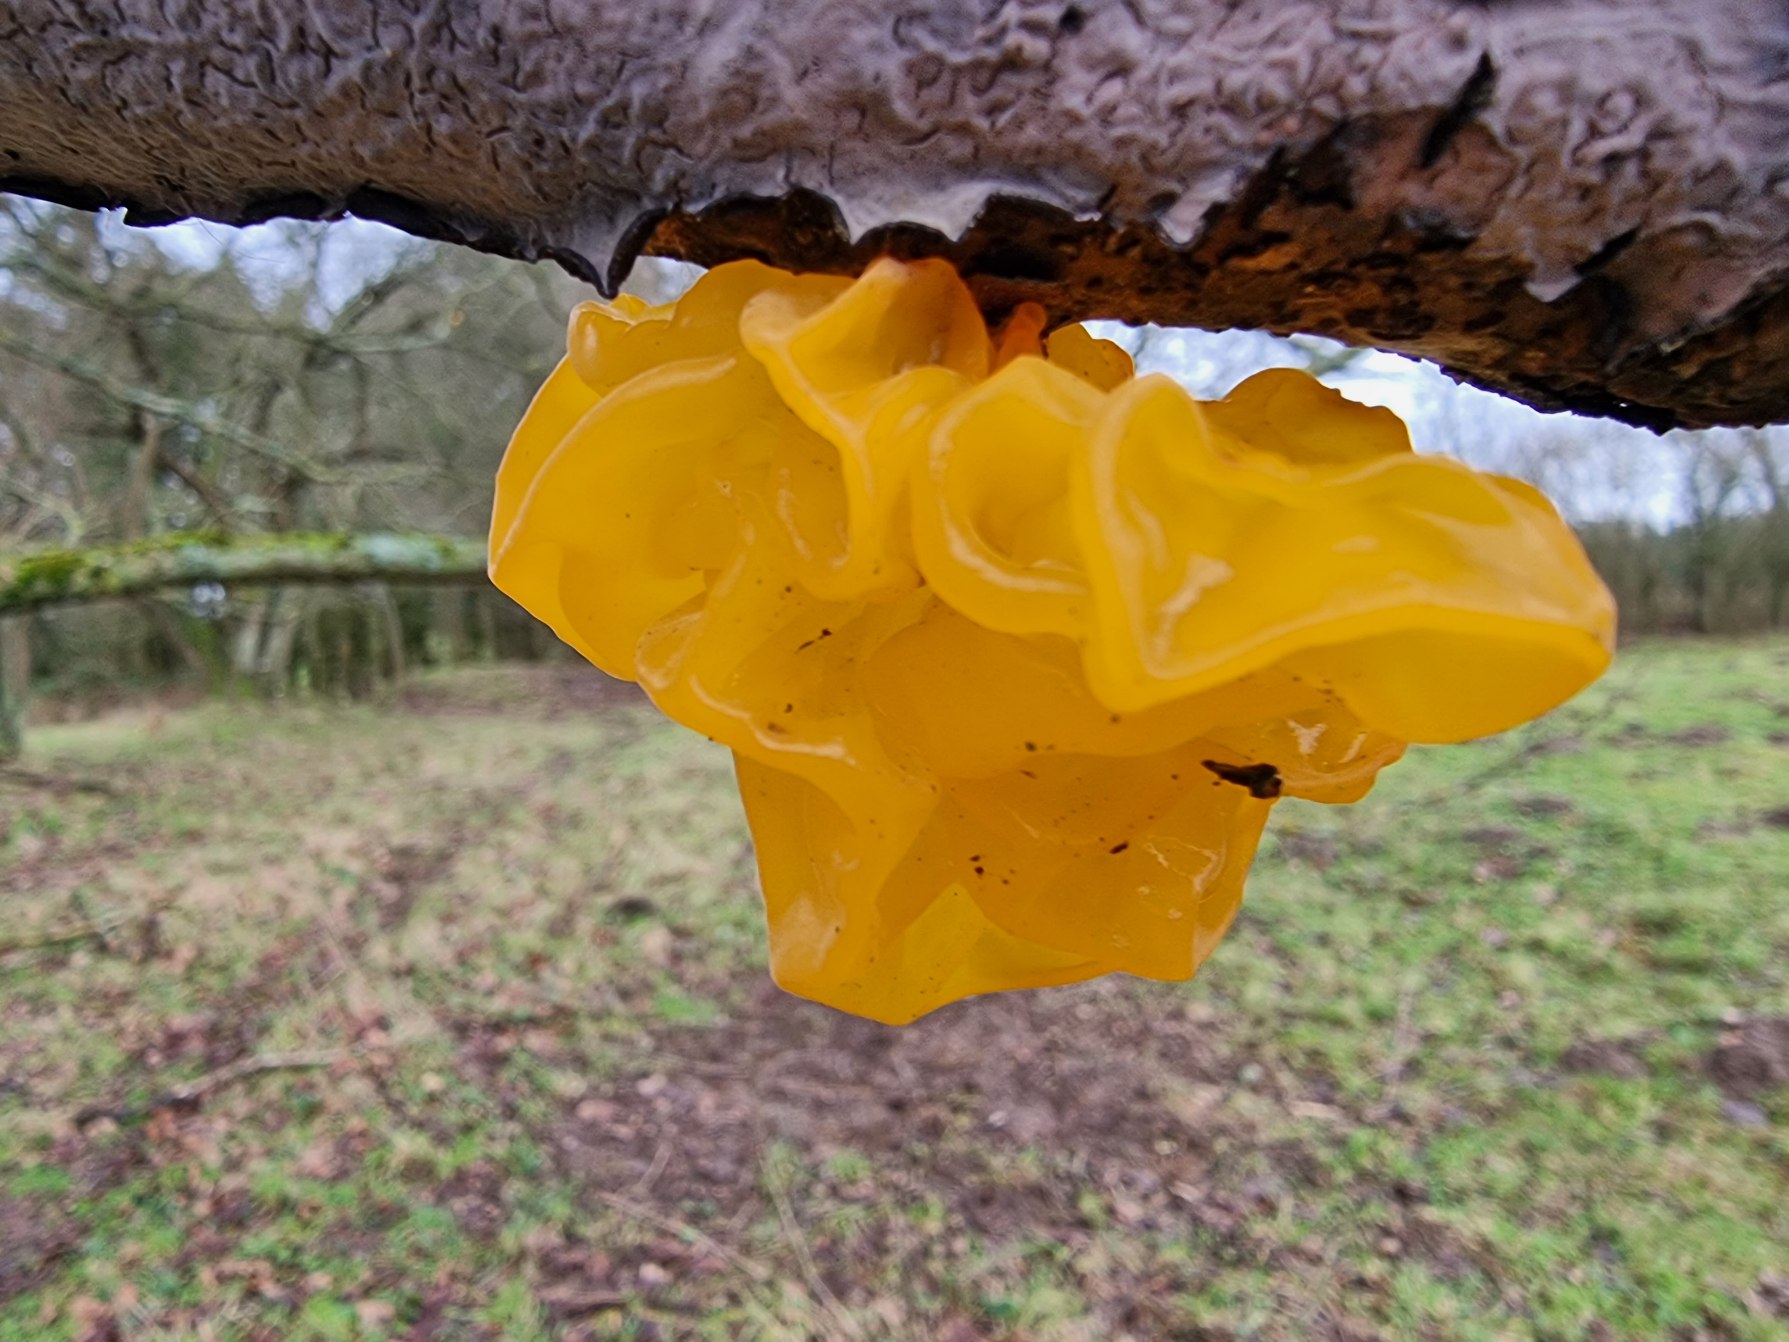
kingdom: Fungi
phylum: Basidiomycota
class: Tremellomycetes
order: Tremellales
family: Tremellaceae
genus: Tremella
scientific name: Tremella mesenterica
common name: Gul bævresvamp
